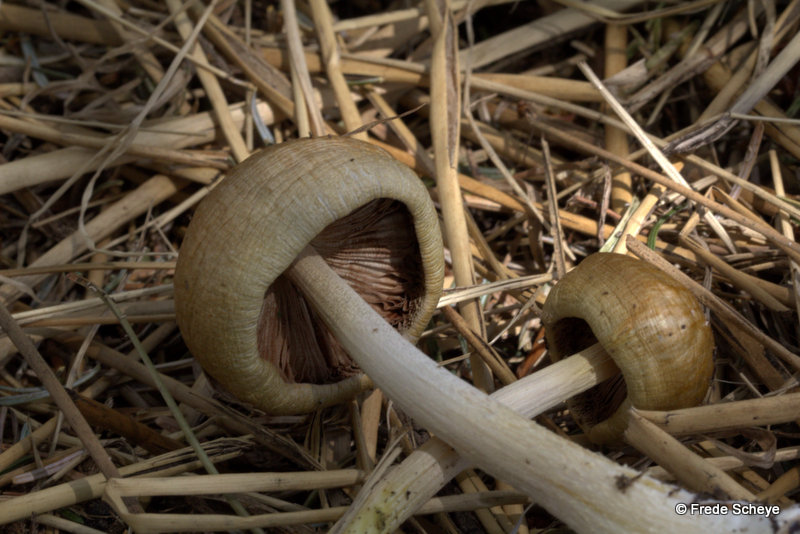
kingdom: Fungi
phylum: Basidiomycota
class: Agaricomycetes
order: Agaricales
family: Bolbitiaceae
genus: Bolbitius
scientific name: Bolbitius titubans
